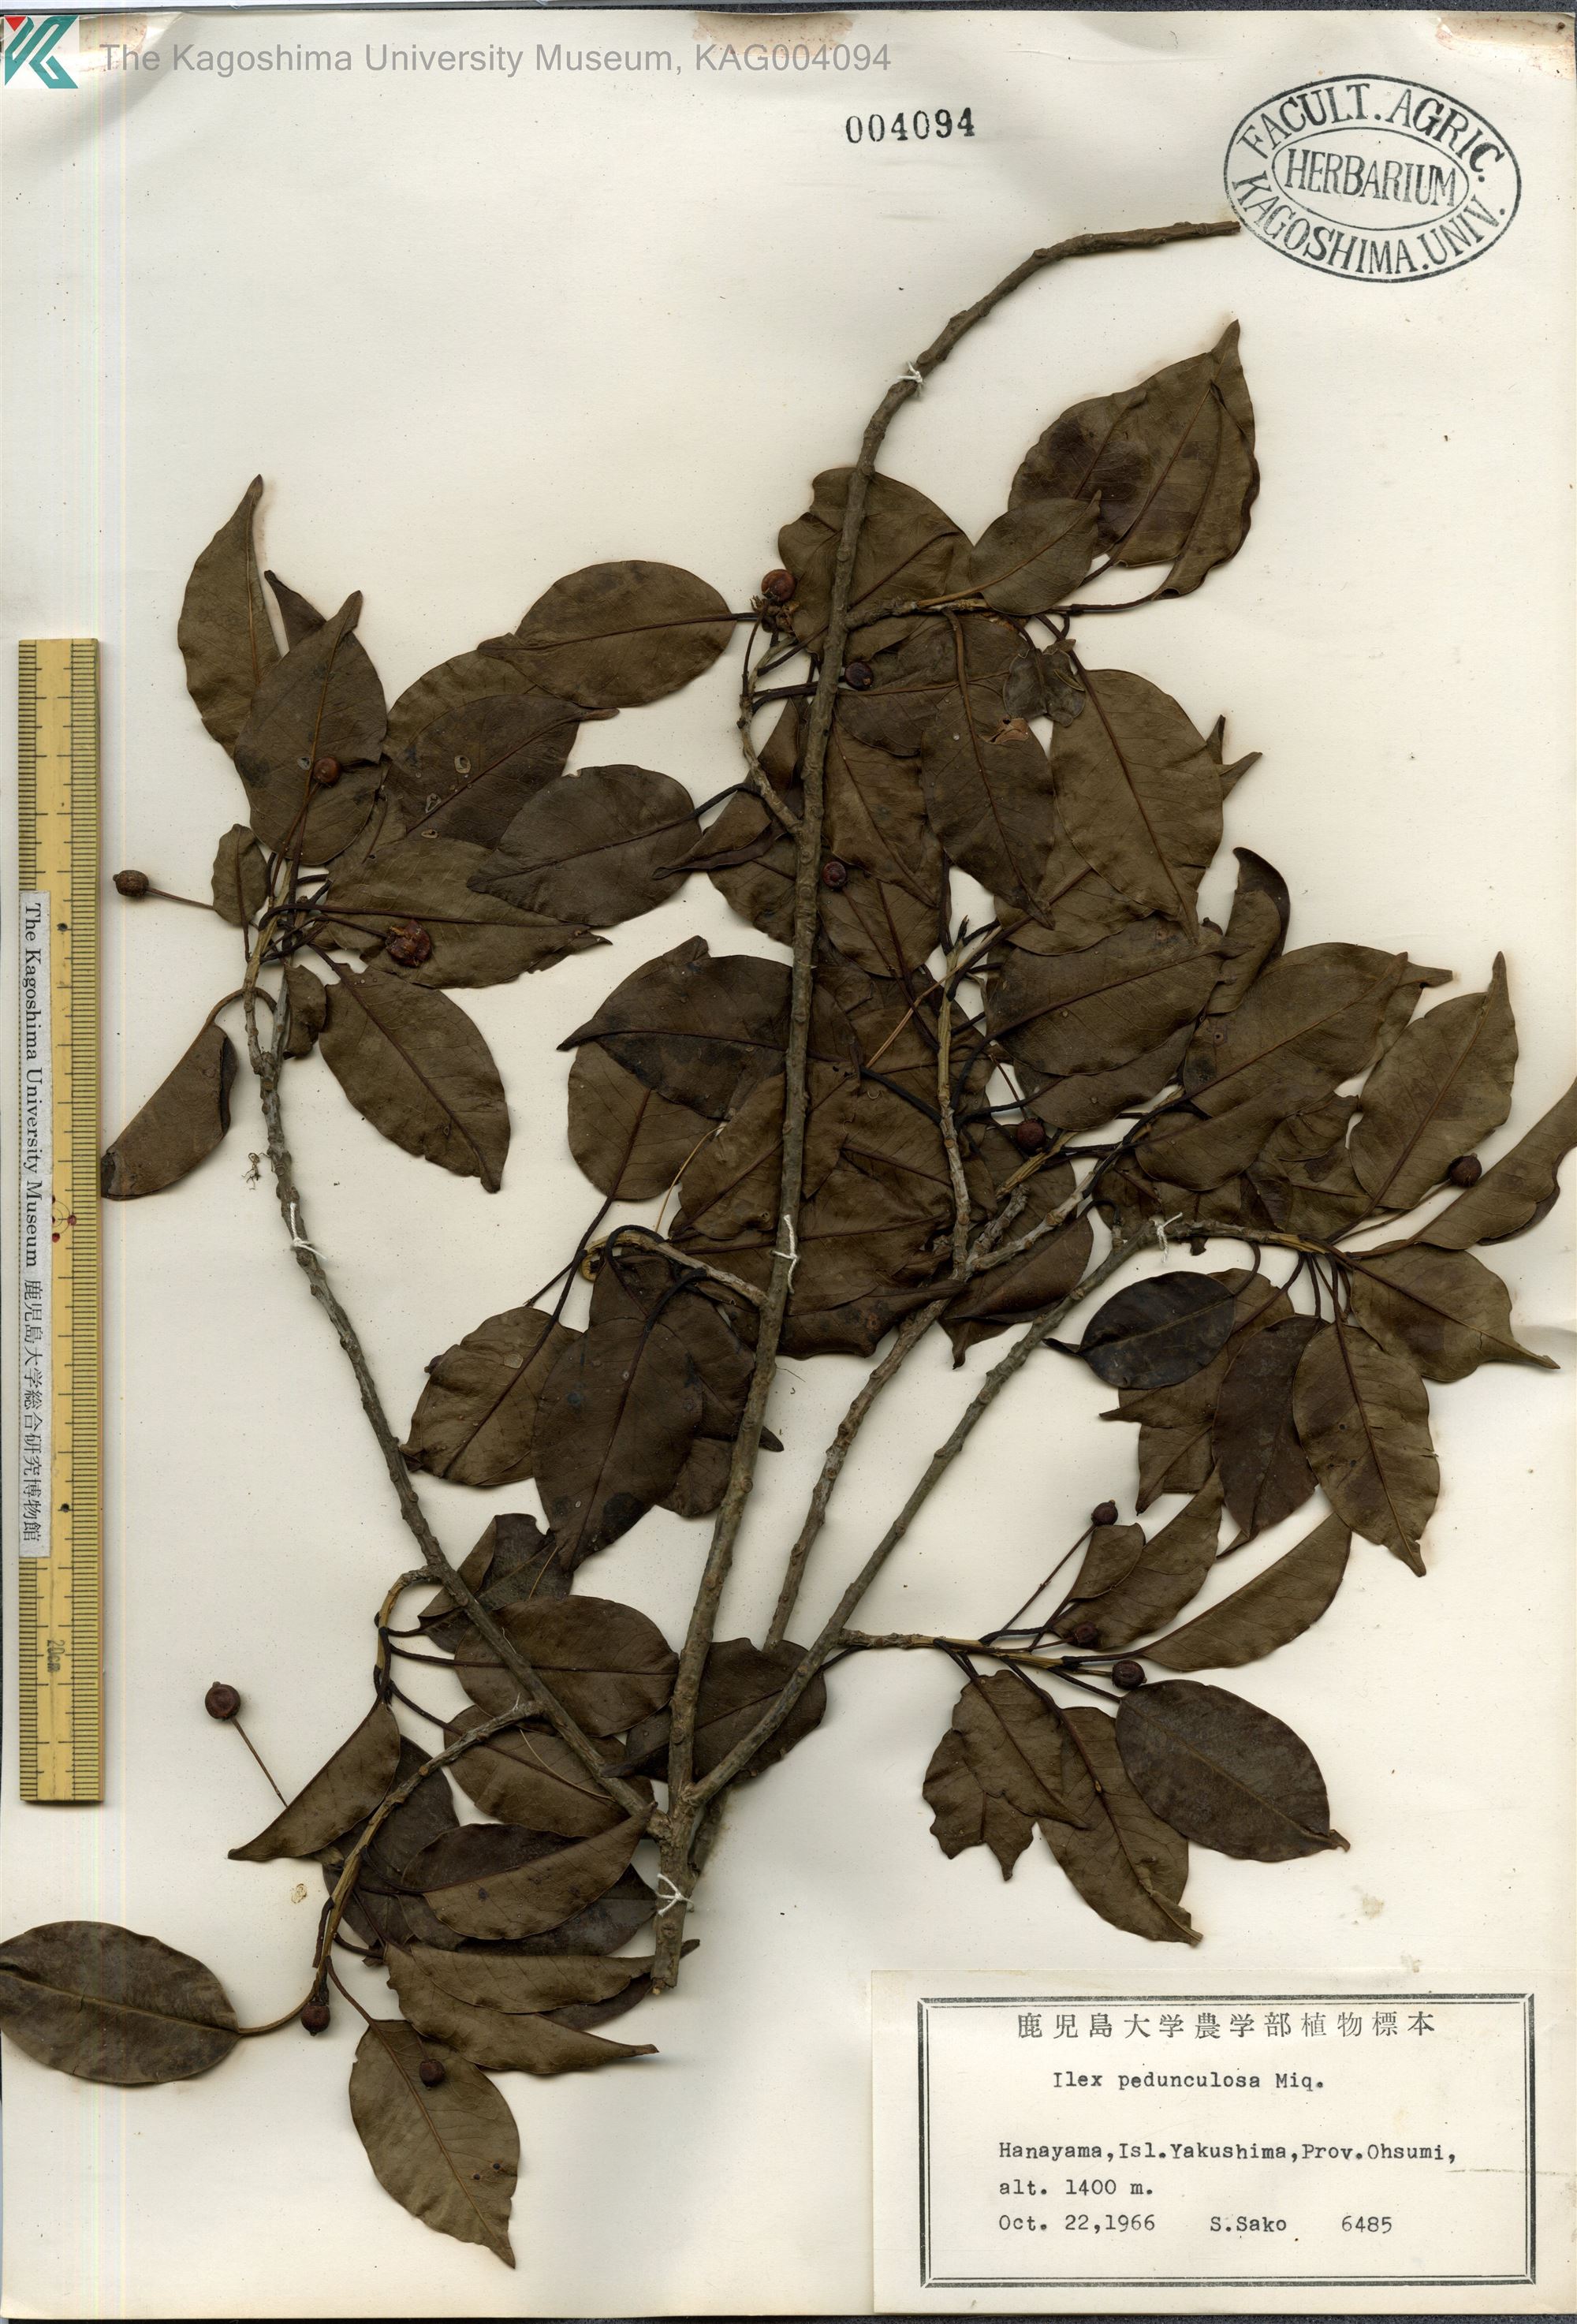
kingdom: Plantae
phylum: Tracheophyta
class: Magnoliopsida
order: Aquifoliales
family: Aquifoliaceae
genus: Ilex
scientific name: Ilex pedunculosa
